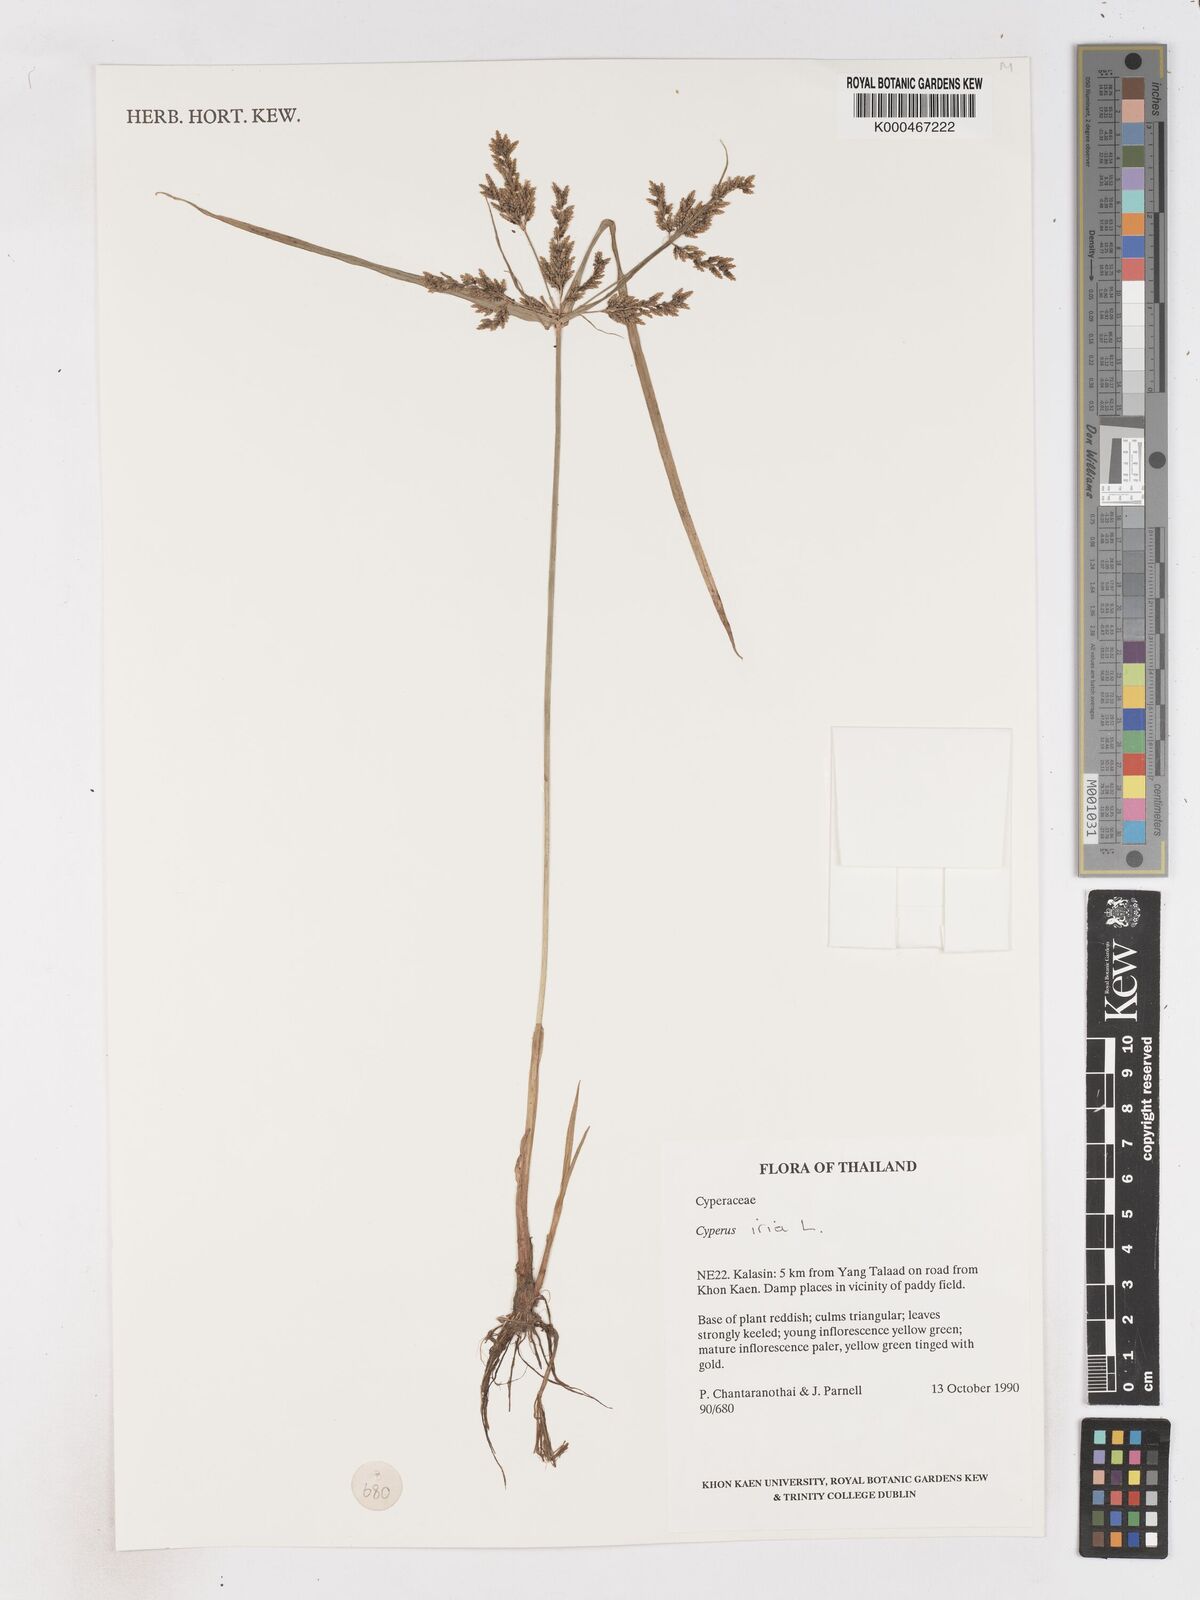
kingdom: Plantae
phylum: Tracheophyta
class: Liliopsida
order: Poales
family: Cyperaceae
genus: Cyperus
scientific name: Cyperus iria
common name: Ricefield flatsedge
